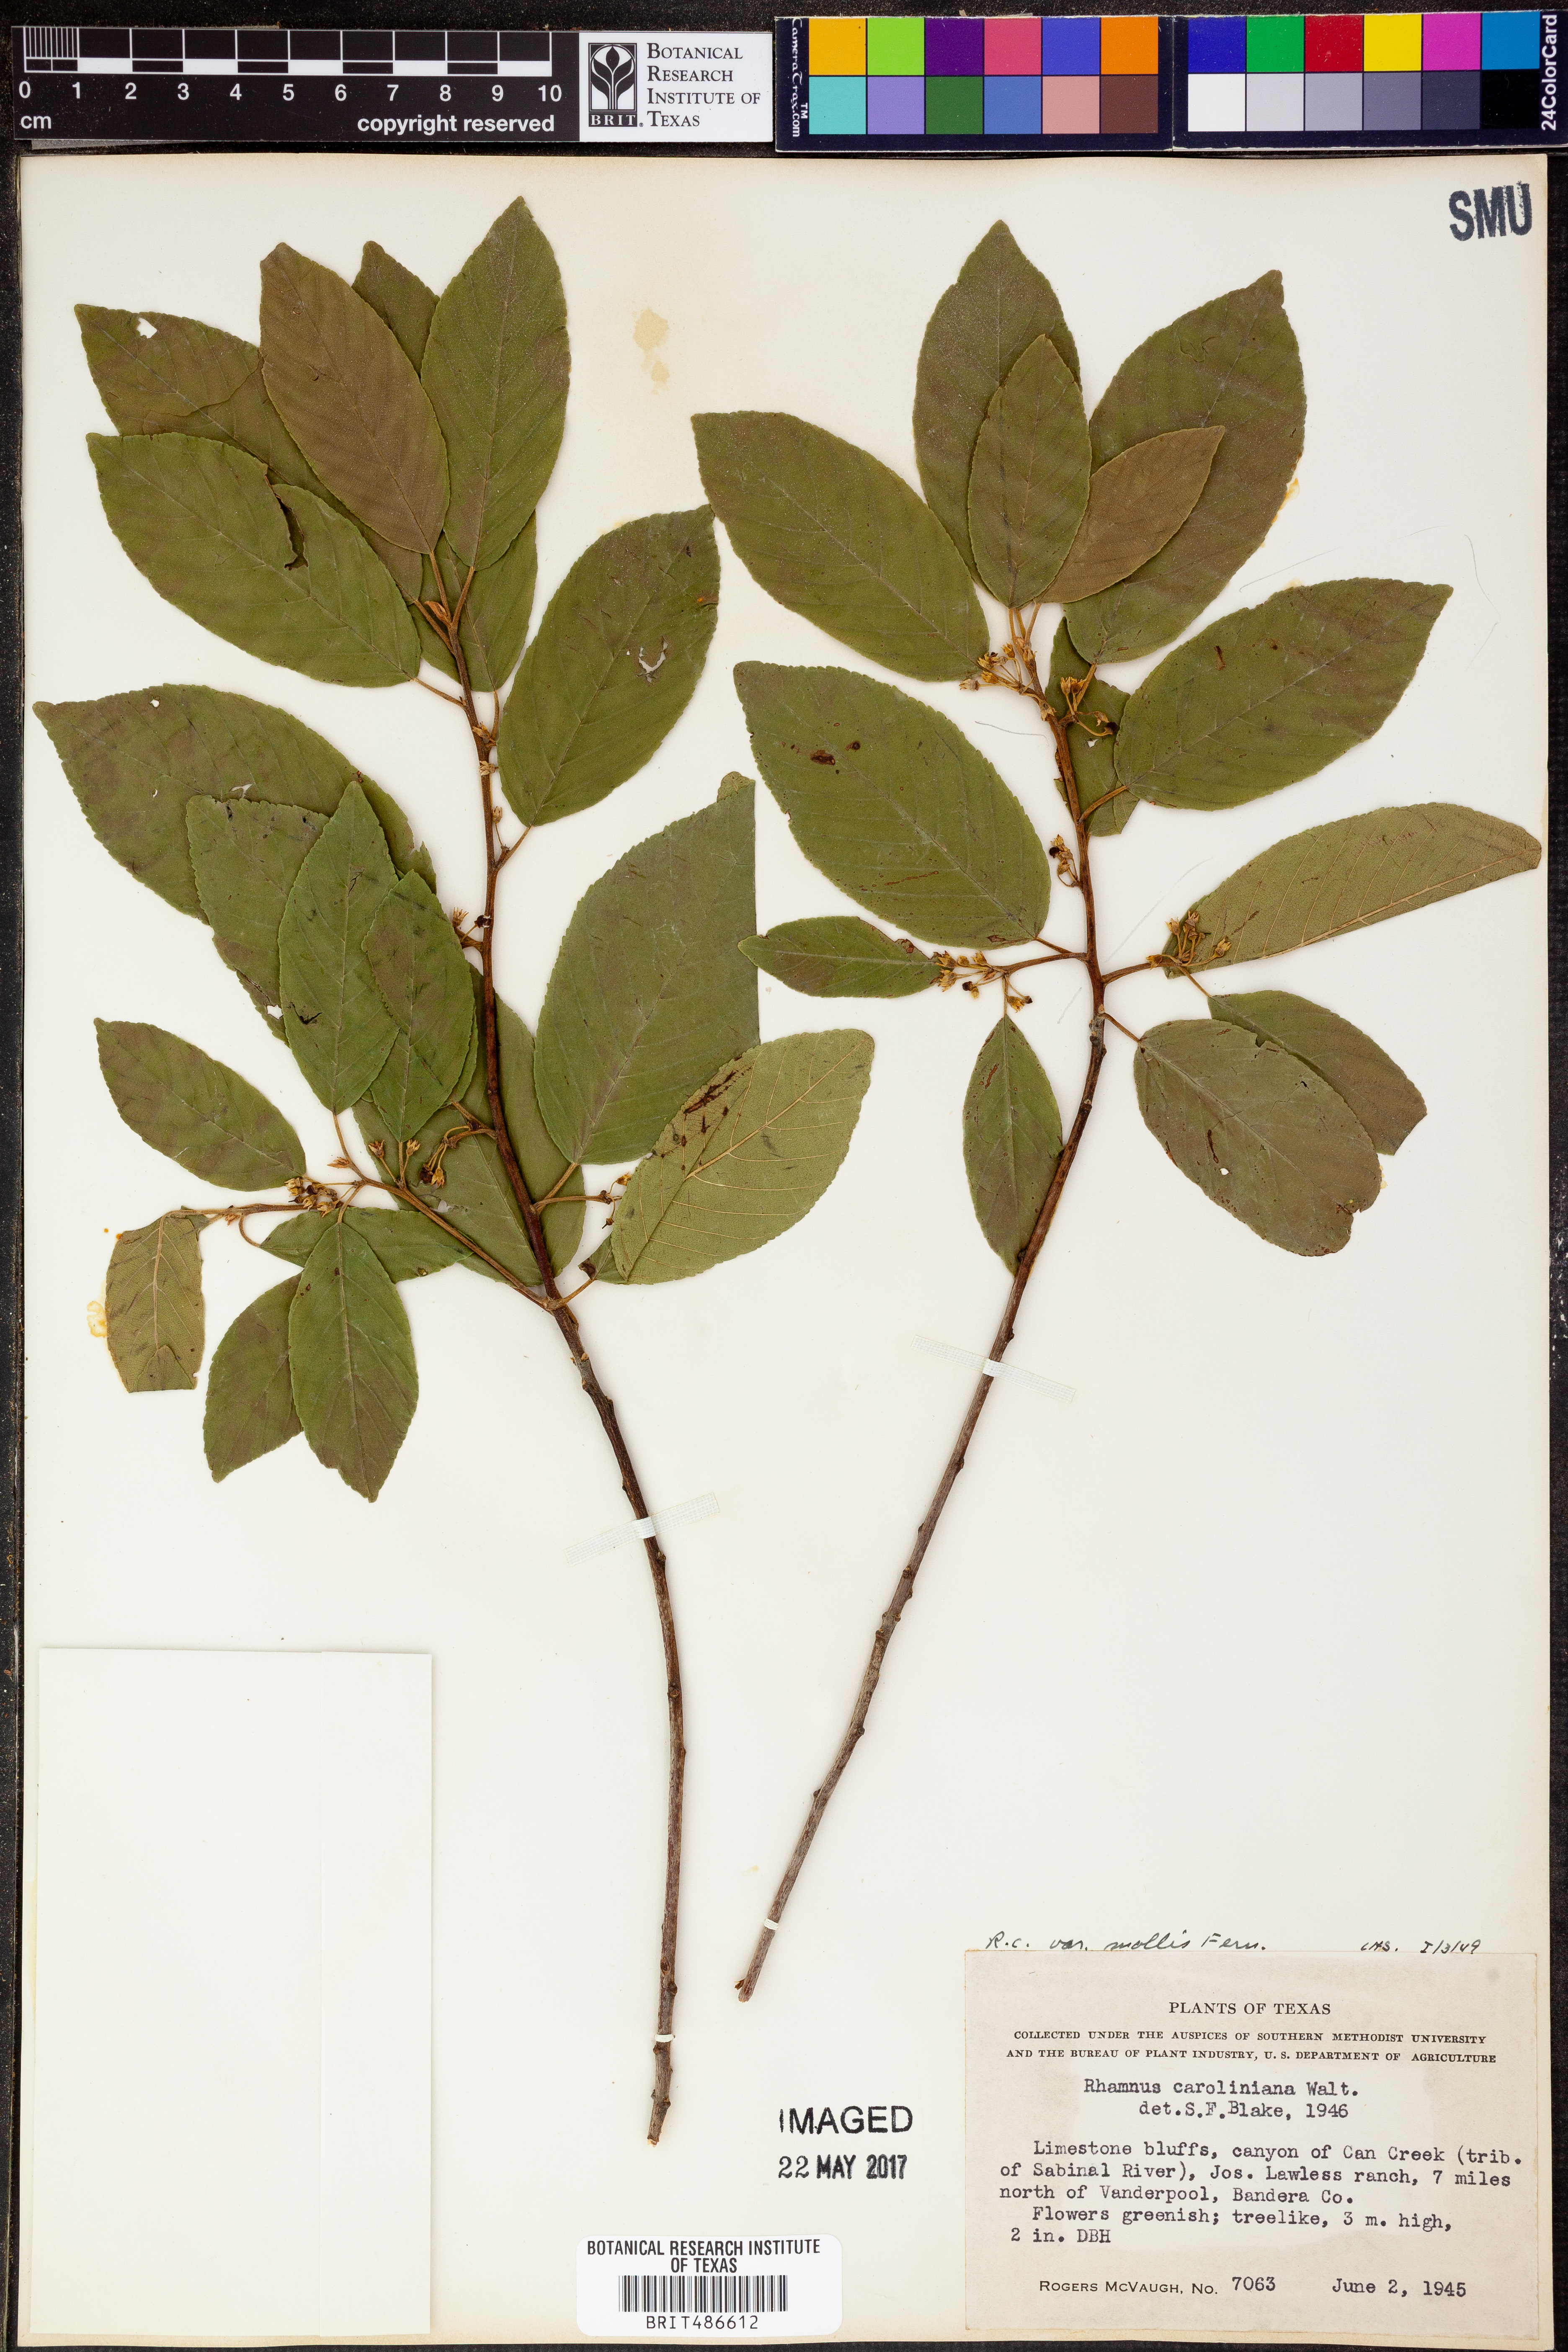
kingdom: Plantae
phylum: Tracheophyta
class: Magnoliopsida
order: Rosales
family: Rhamnaceae
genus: Frangula
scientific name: Frangula caroliniana
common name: Carolina buckthorn
